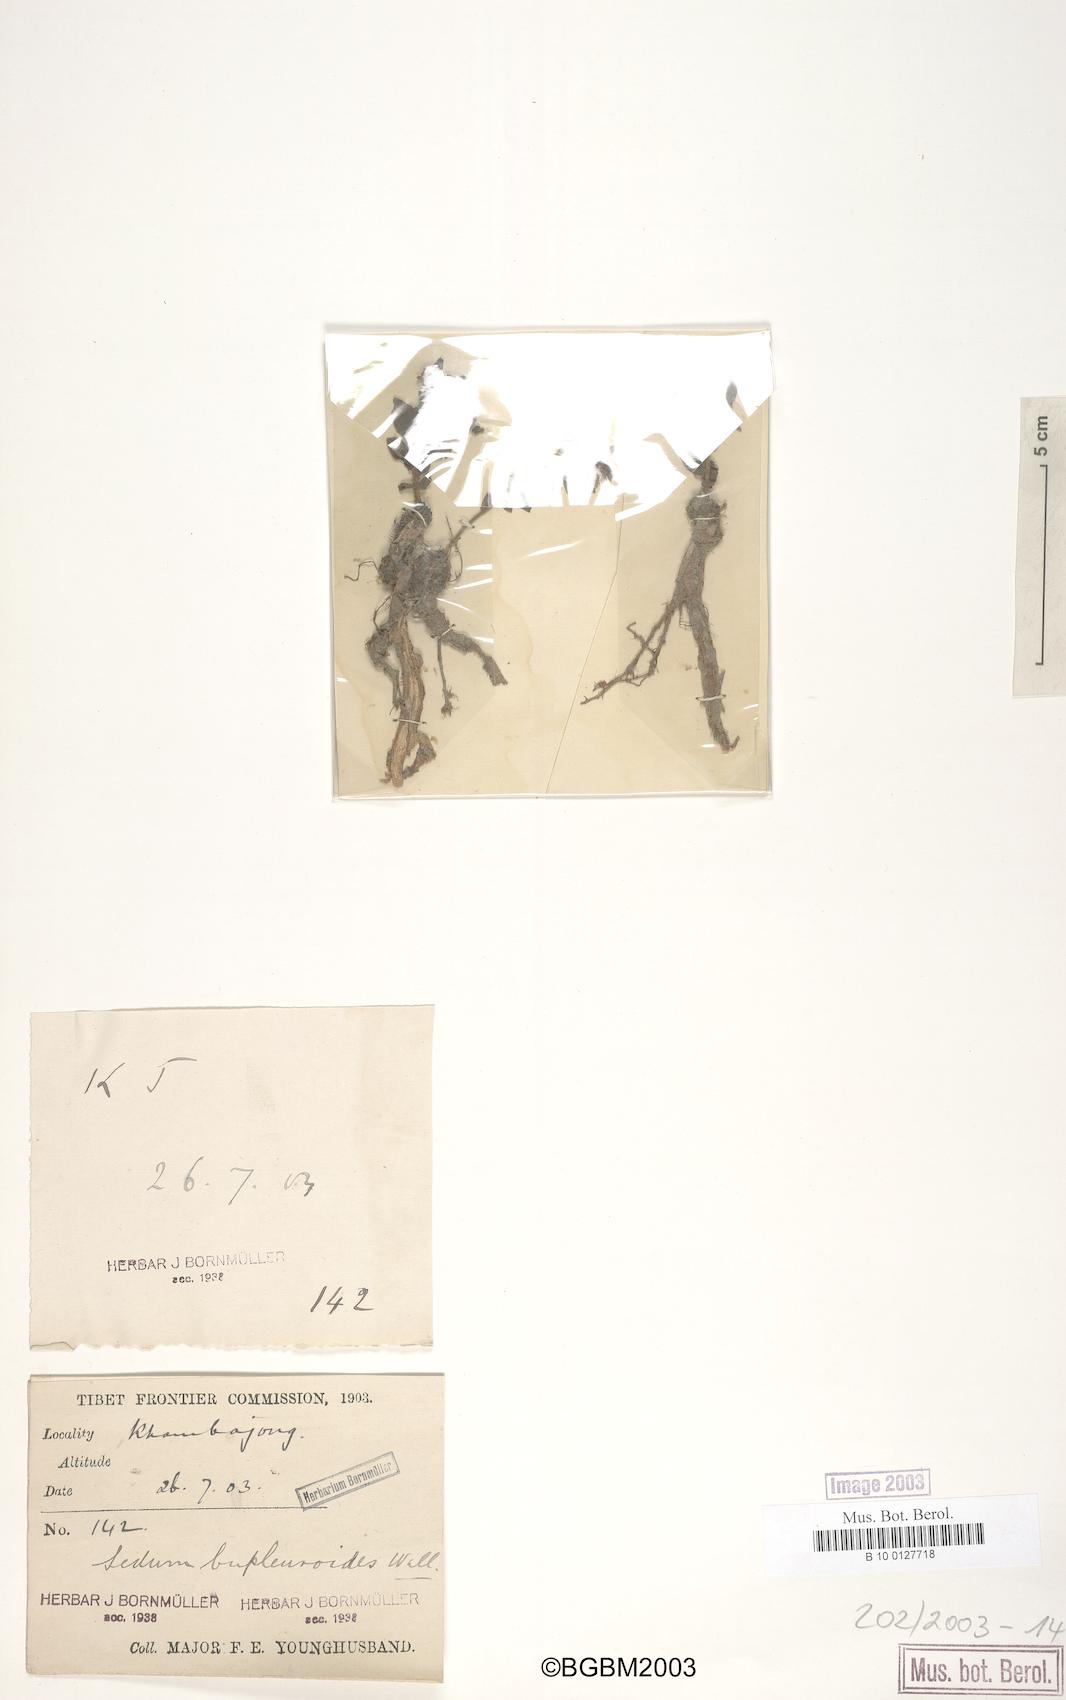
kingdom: Plantae
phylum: Tracheophyta
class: Magnoliopsida
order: Saxifragales
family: Crassulaceae
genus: Rhodiola
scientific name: Rhodiola bupleuroides
